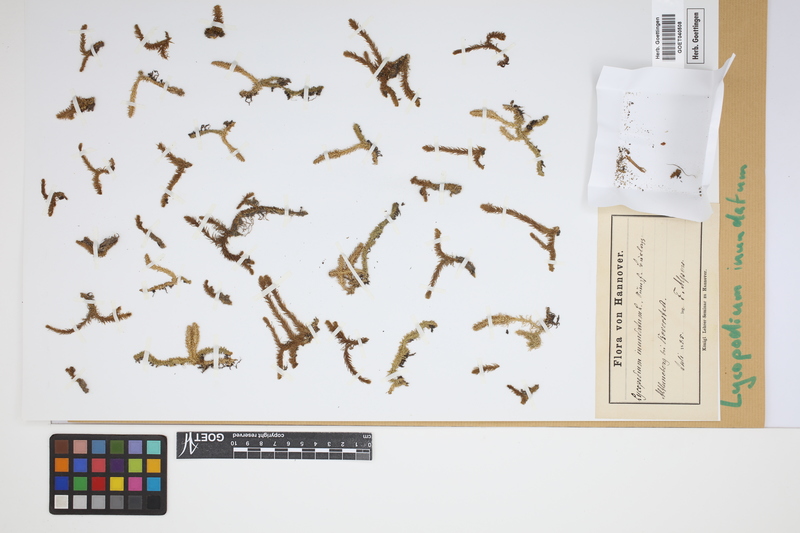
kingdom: Plantae
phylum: Tracheophyta
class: Lycopodiopsida
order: Lycopodiales
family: Lycopodiaceae
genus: Lycopodiella
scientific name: Lycopodiella inundata
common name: Marsh clubmoss
